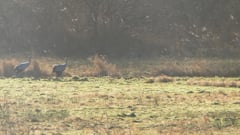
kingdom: Animalia
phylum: Chordata
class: Aves
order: Gruiformes
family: Gruidae
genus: Grus
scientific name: Grus grus
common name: Common crane
